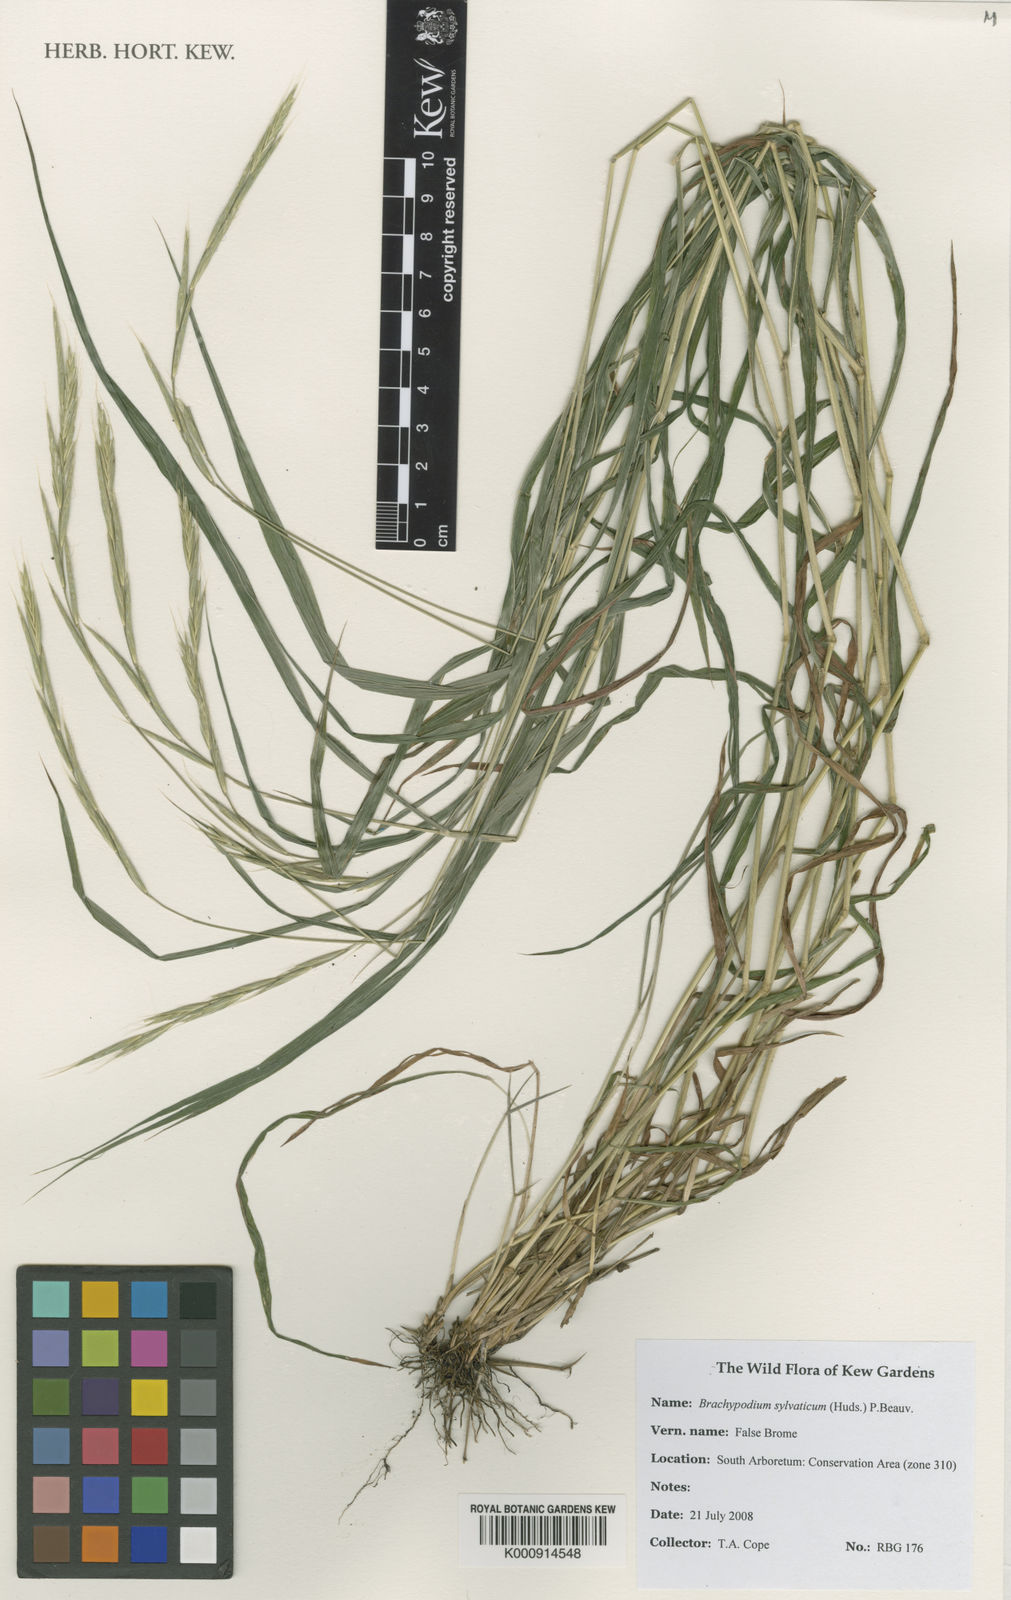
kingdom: Plantae
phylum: Tracheophyta
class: Liliopsida
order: Poales
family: Poaceae
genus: Brachypodium
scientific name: Brachypodium sylvaticum
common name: False-brome
